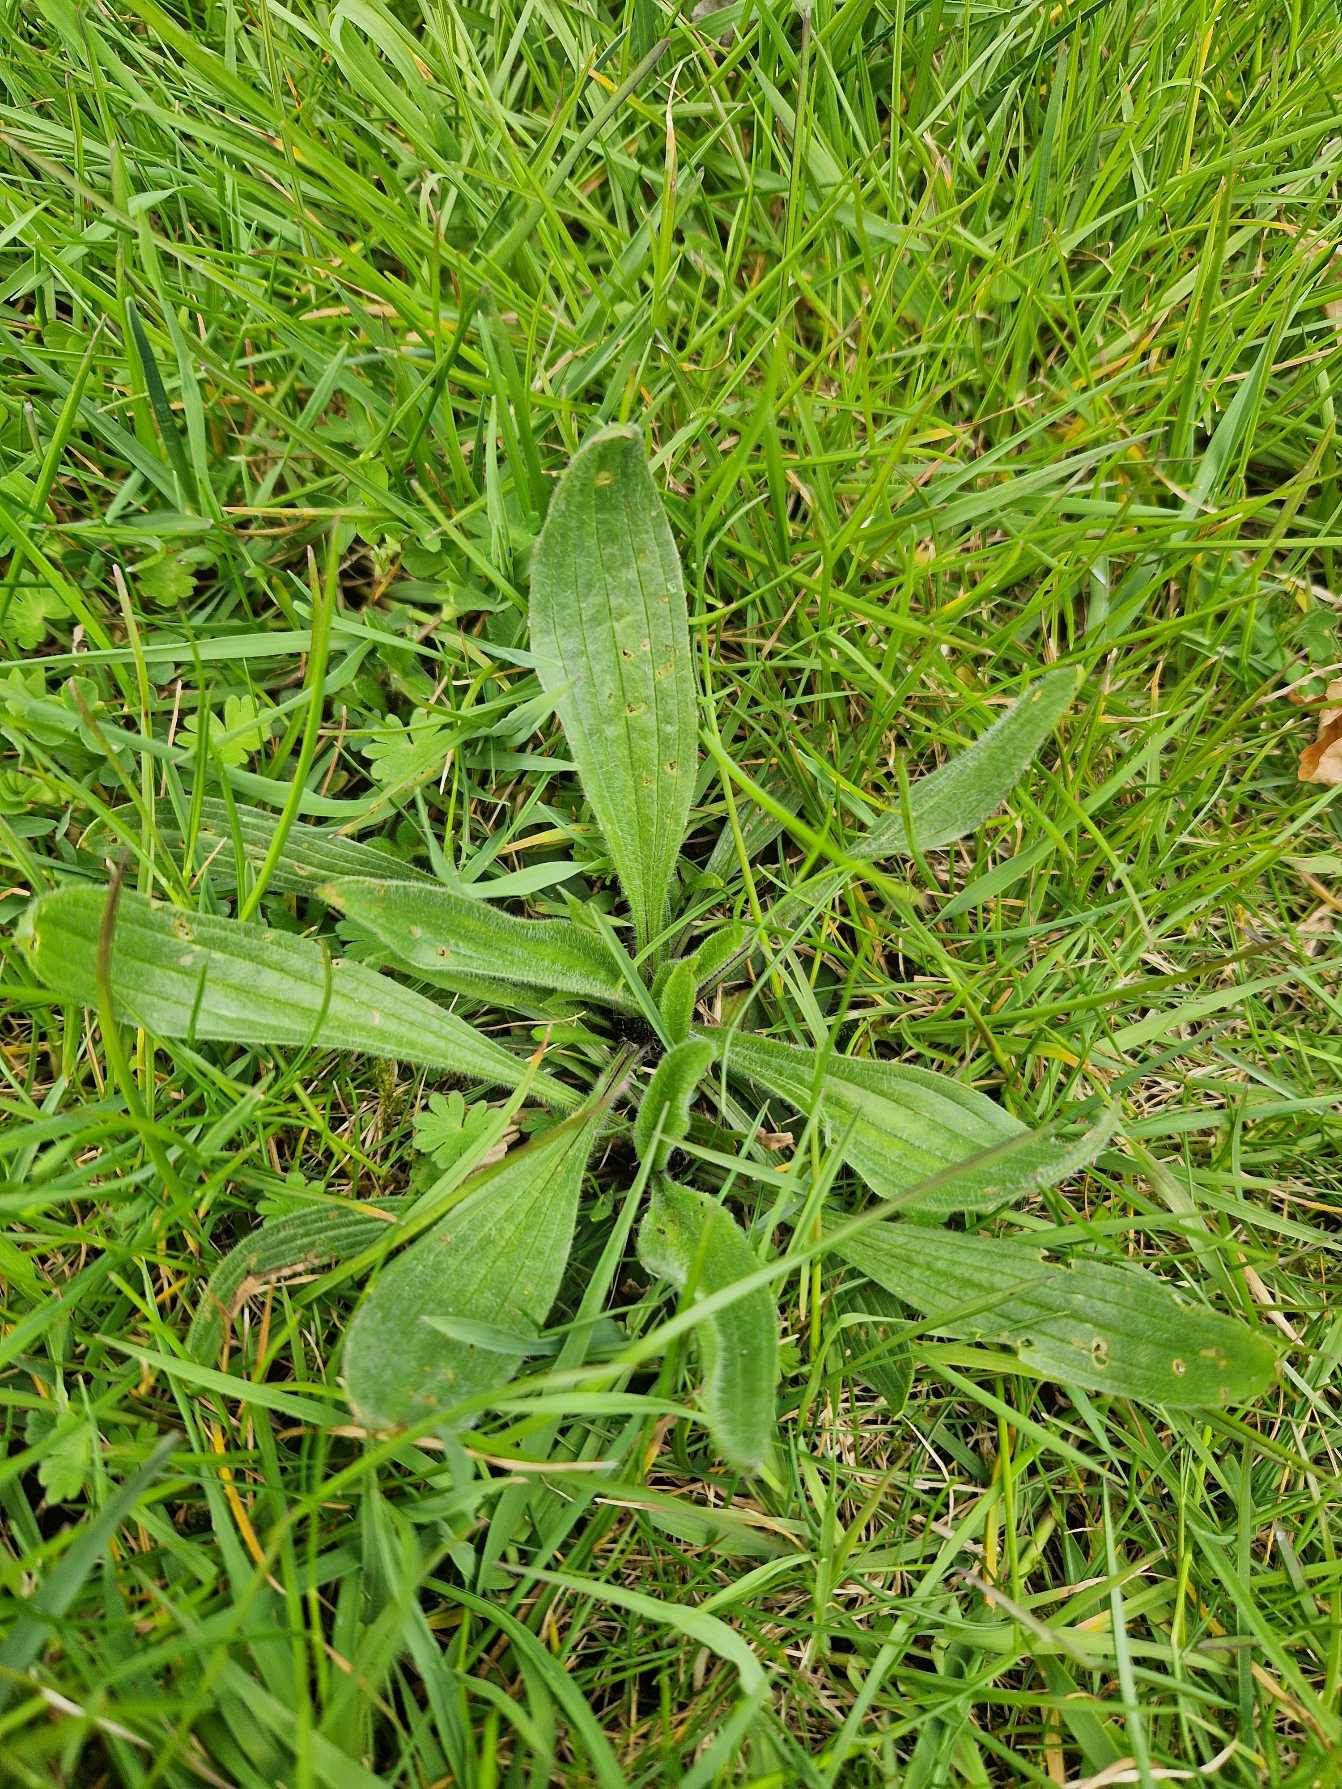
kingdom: Plantae
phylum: Tracheophyta
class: Magnoliopsida
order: Lamiales
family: Plantaginaceae
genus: Plantago
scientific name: Plantago lanceolata
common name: Lancet-vejbred
